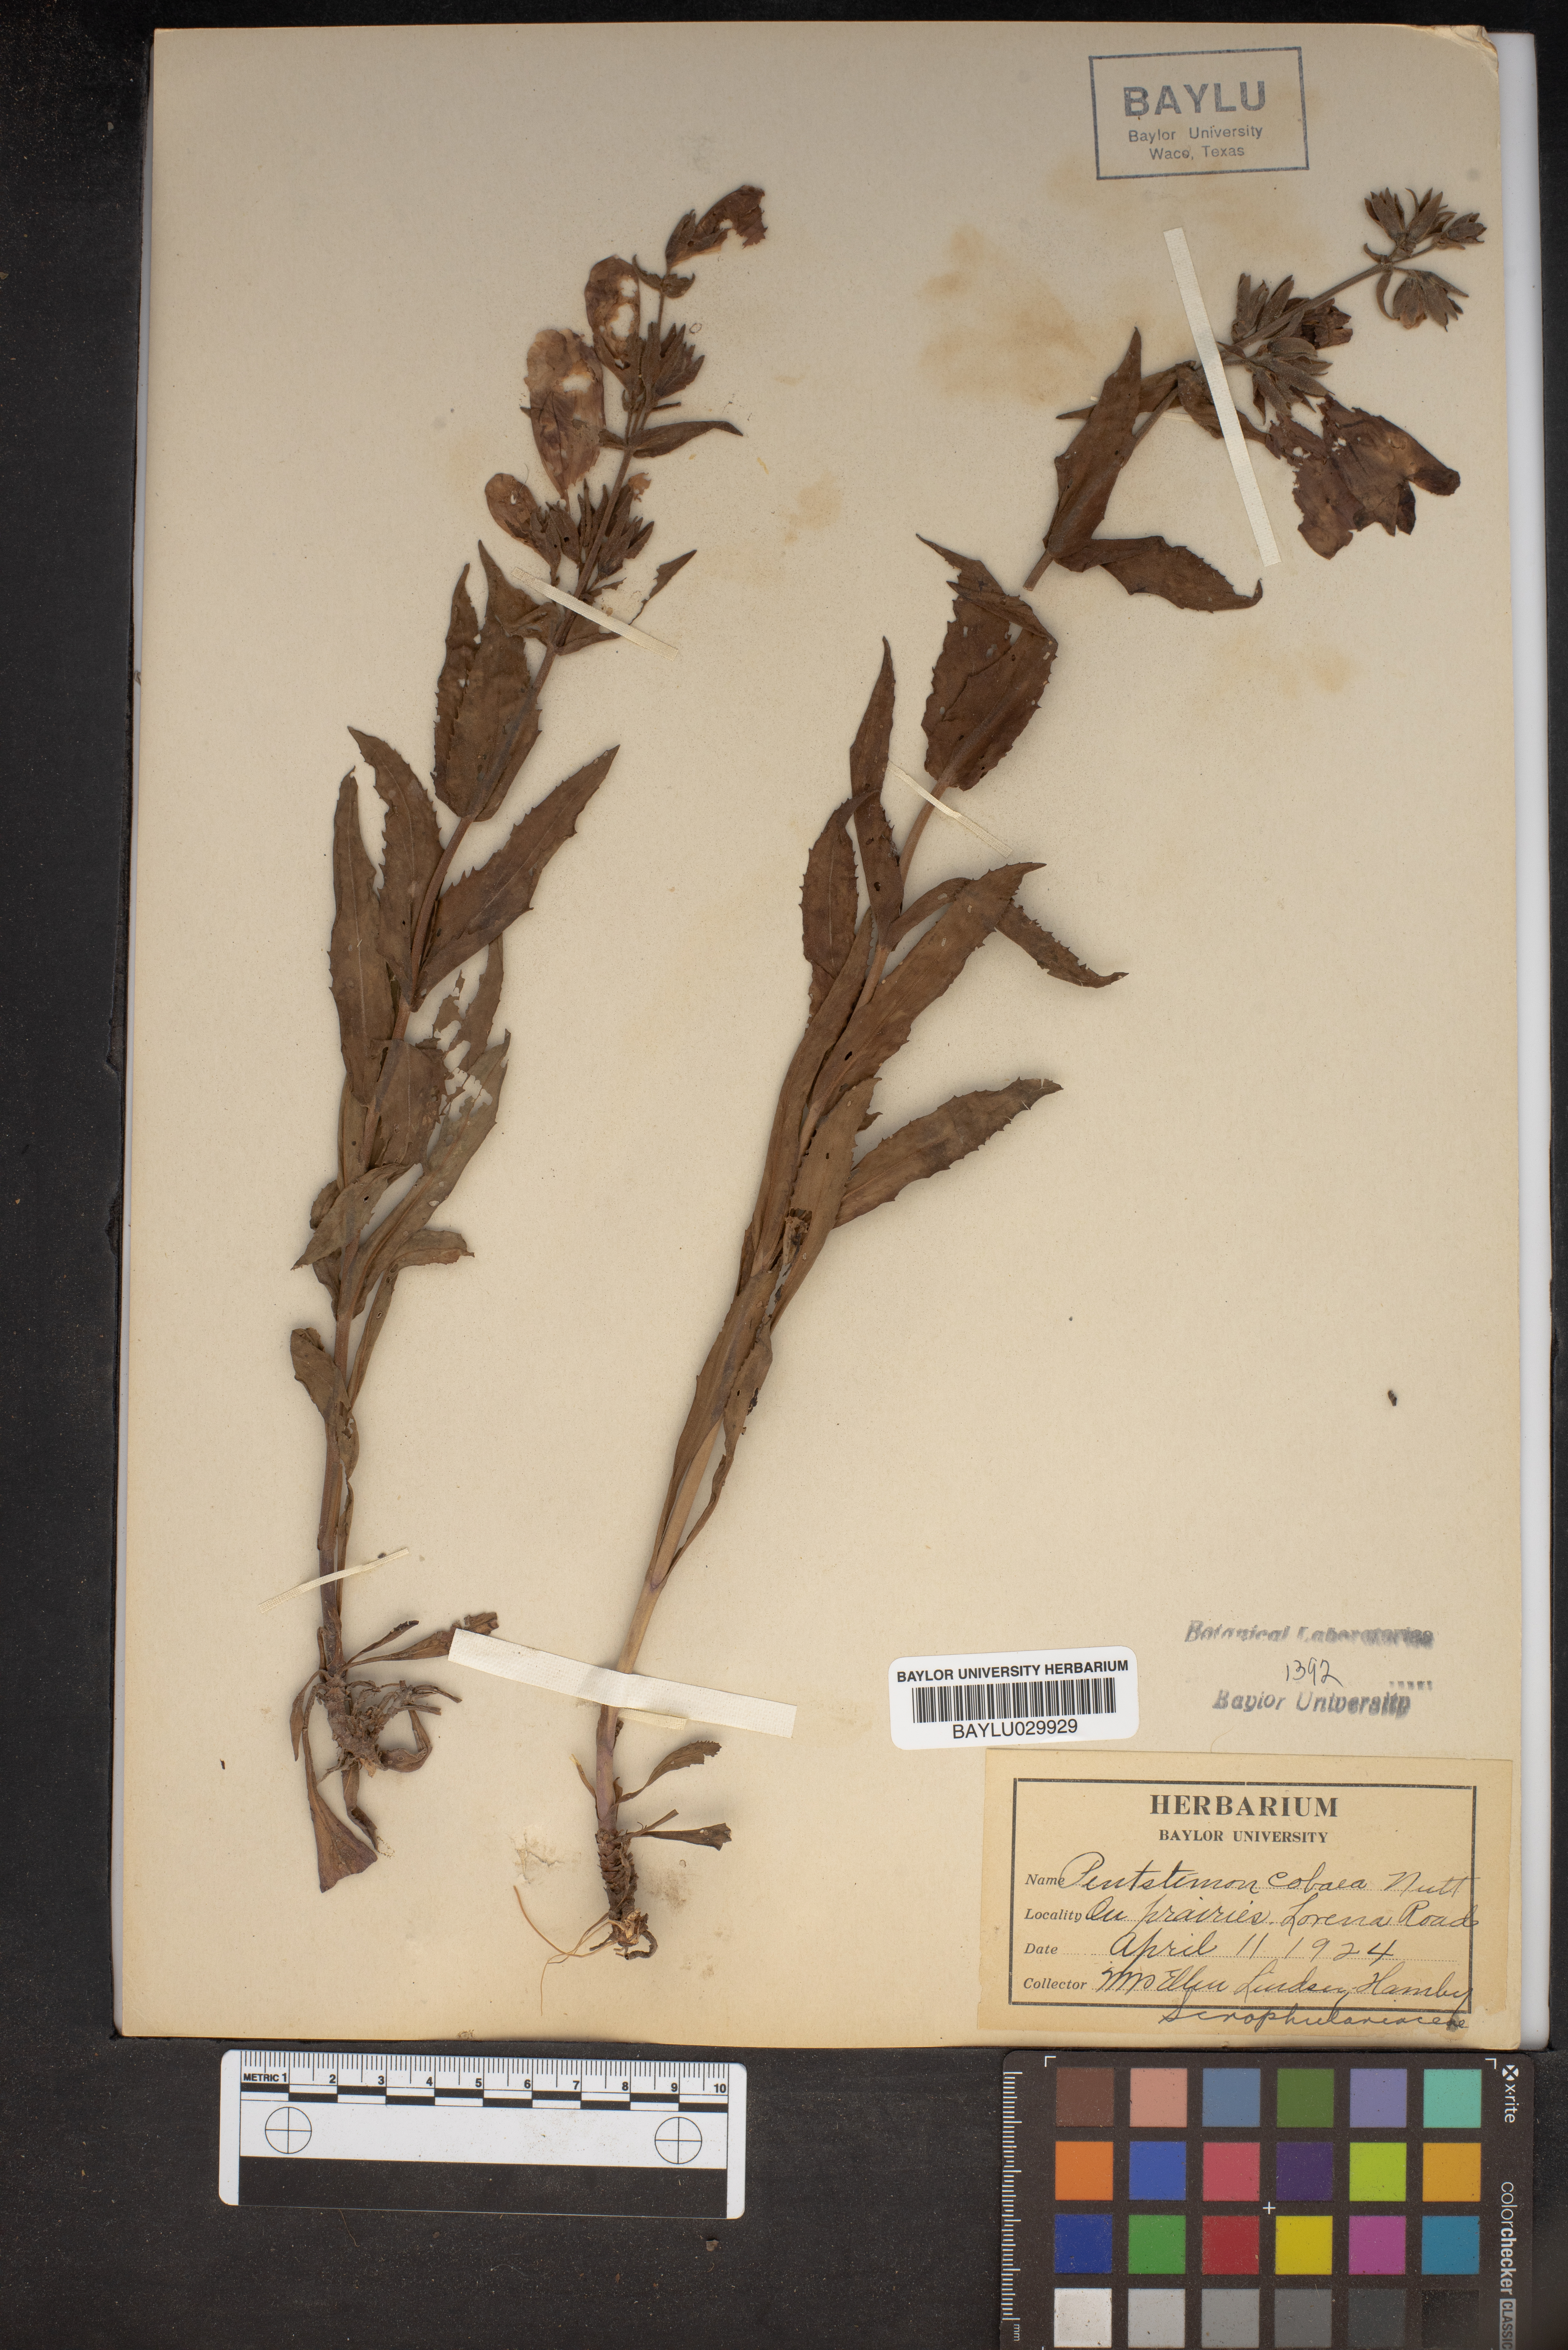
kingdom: Plantae
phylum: Tracheophyta
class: Magnoliopsida
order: Lamiales
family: Plantaginaceae
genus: Penstemon
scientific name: Penstemon cobaea
